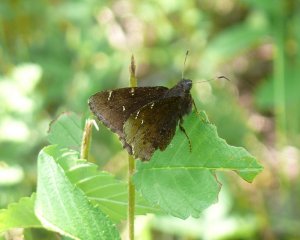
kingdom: Animalia
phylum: Arthropoda
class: Insecta
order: Lepidoptera
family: Hesperiidae
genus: Autochton
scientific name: Autochton
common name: Northern Cloudywing
